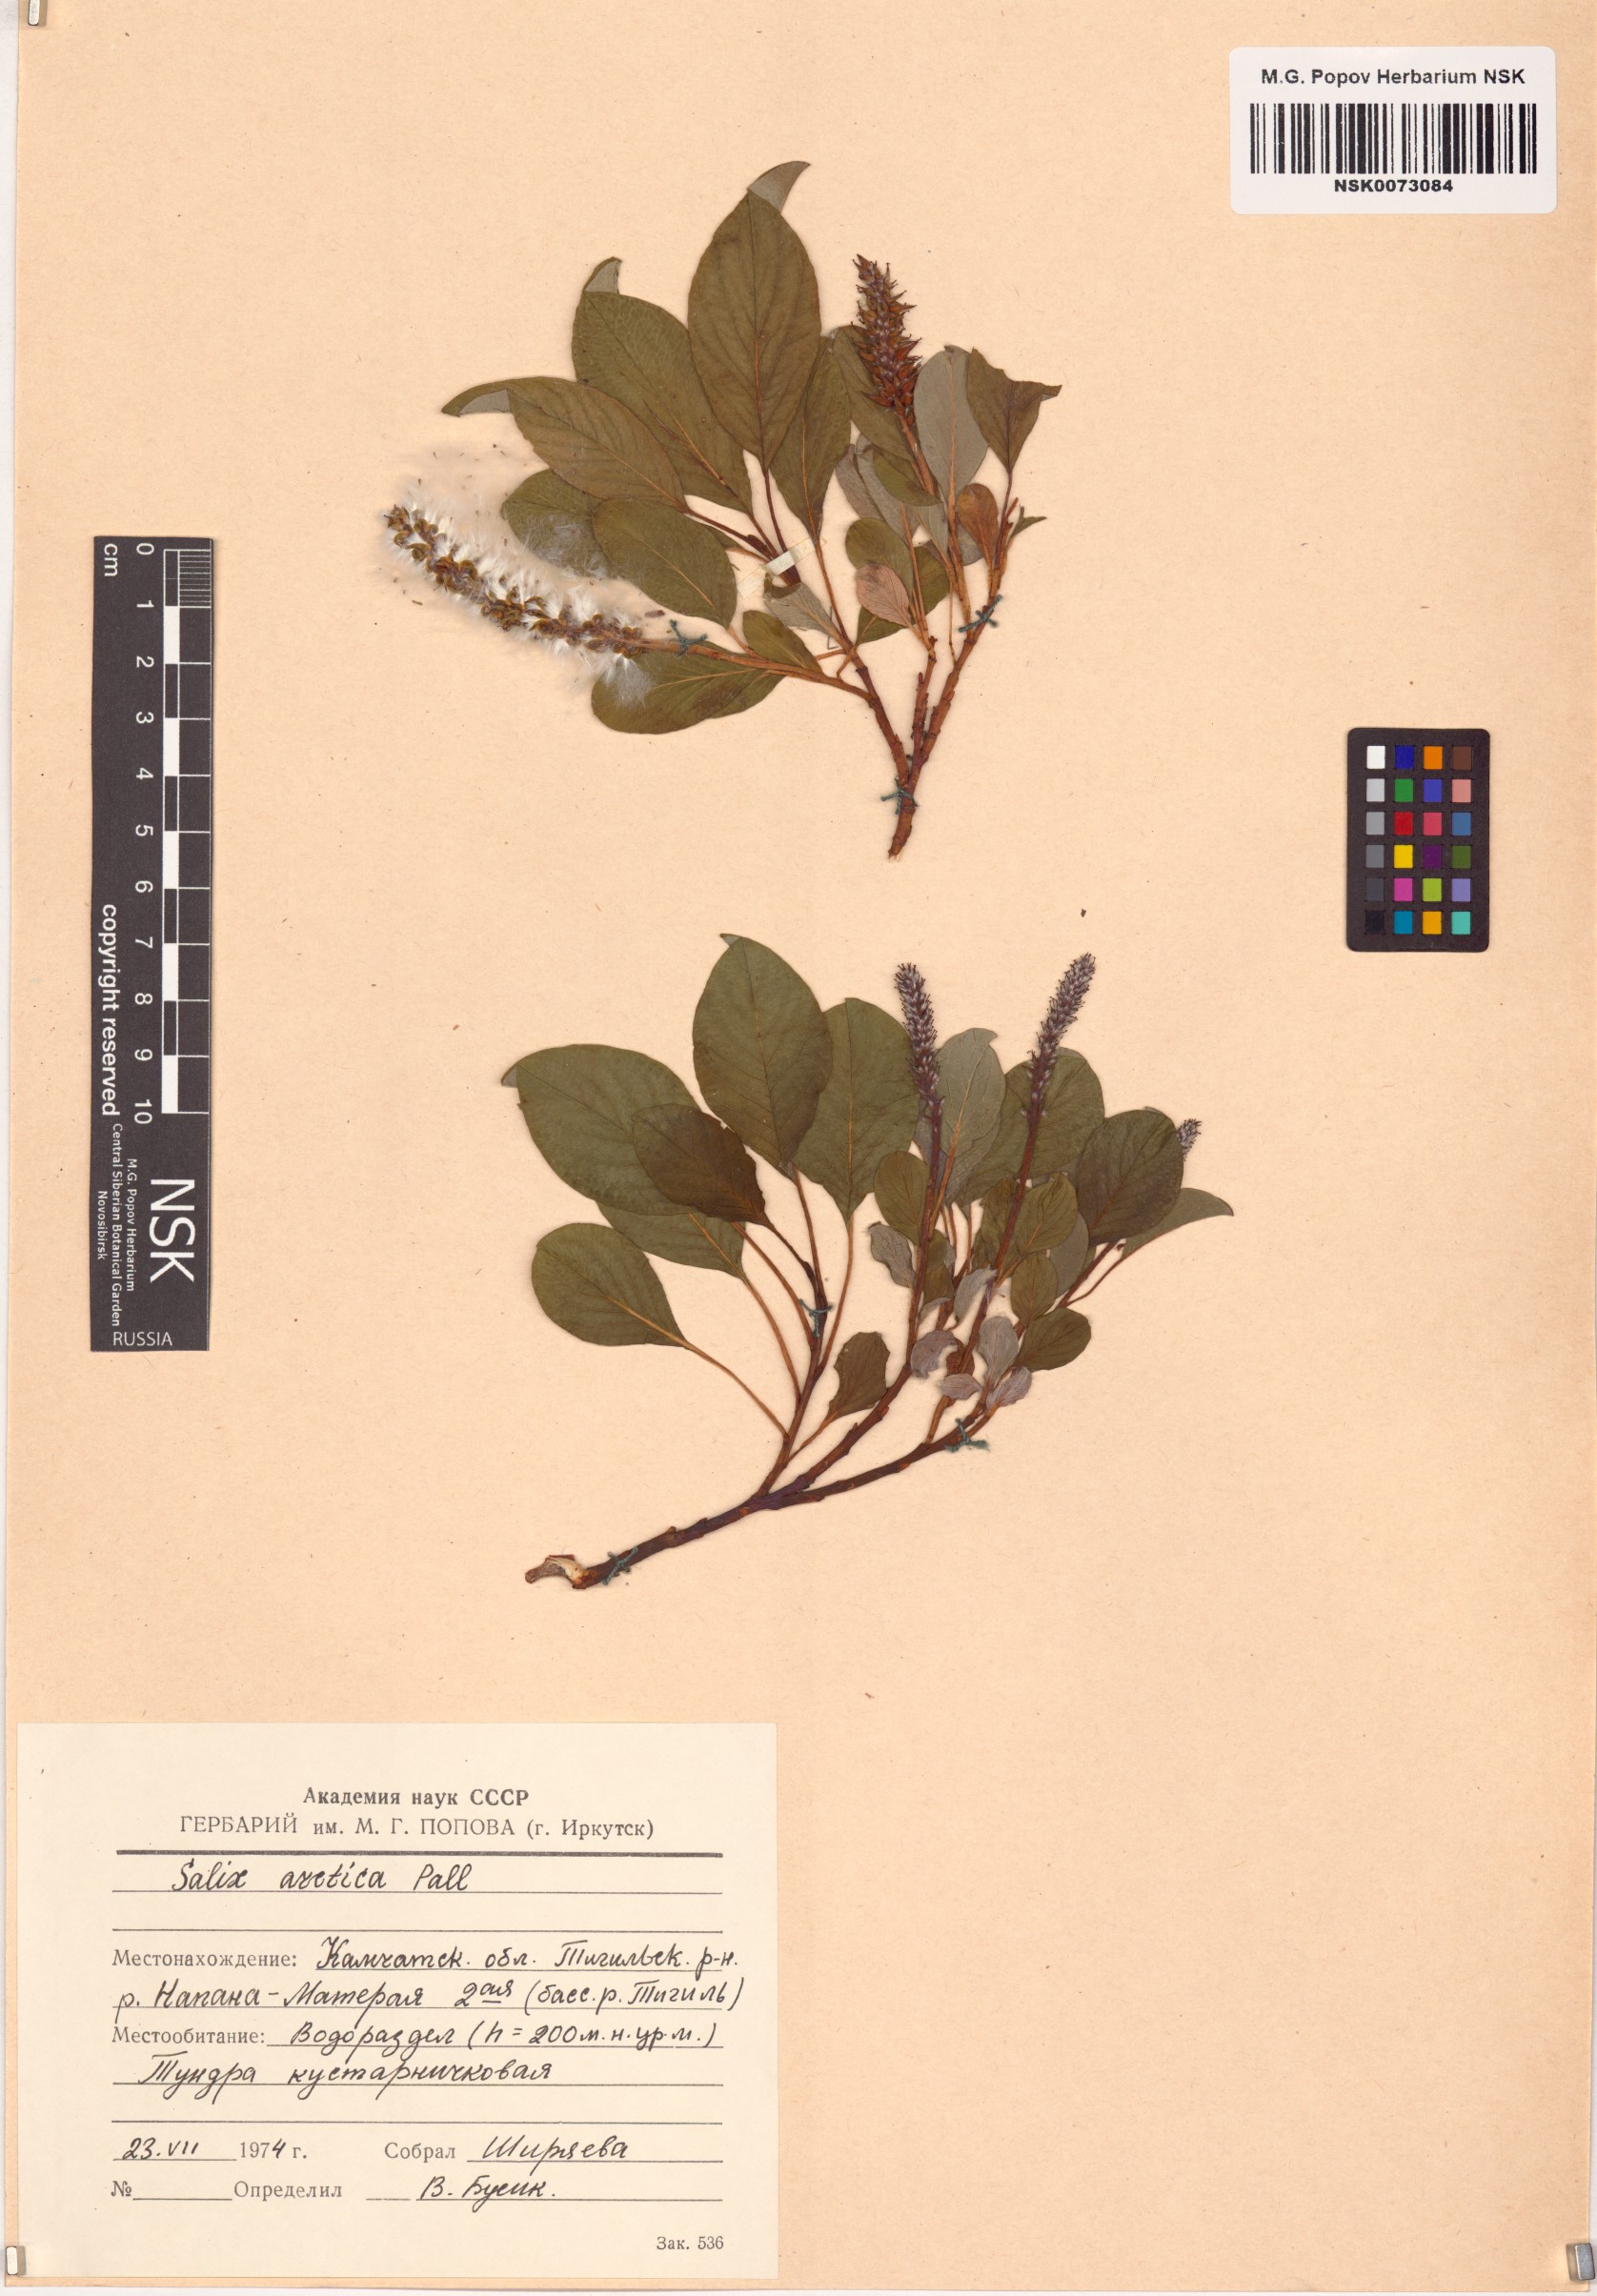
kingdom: Plantae
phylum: Tracheophyta
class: Magnoliopsida
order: Malpighiales
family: Salicaceae
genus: Salix
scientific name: Salix arctica
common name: Arctic willow
